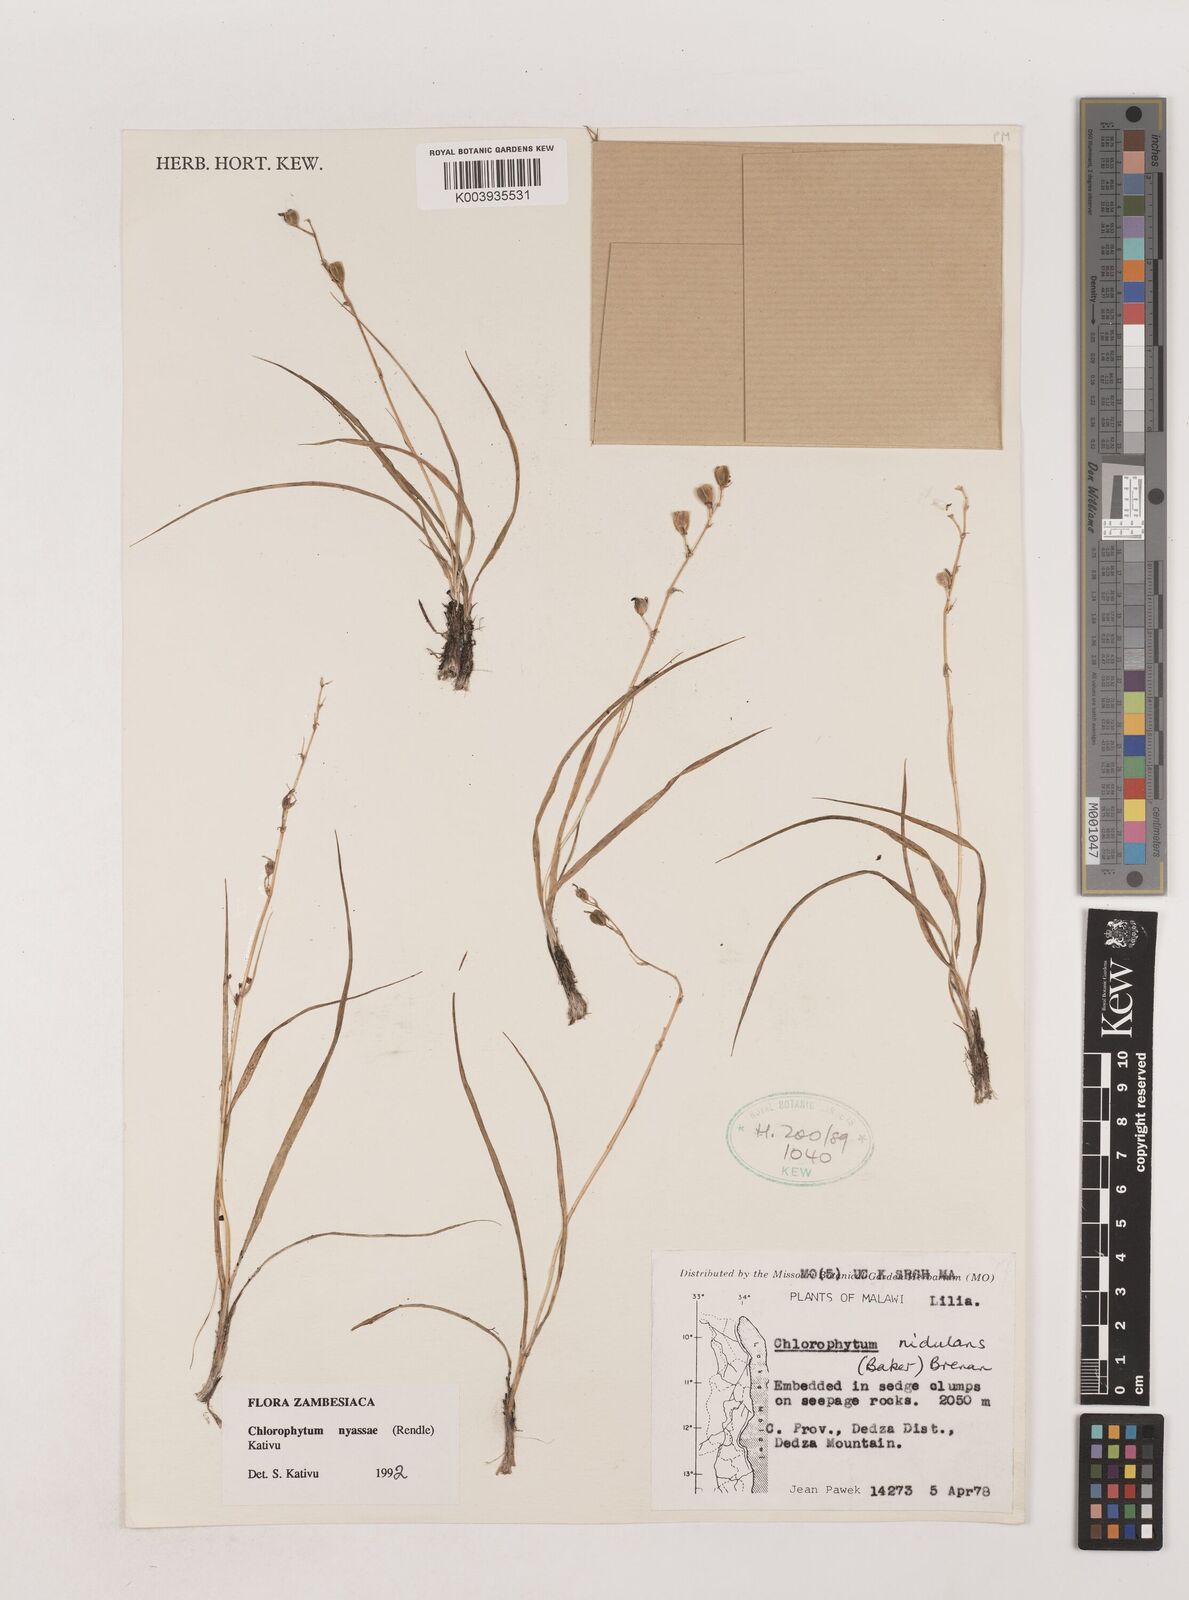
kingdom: Plantae
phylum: Tracheophyta
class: Liliopsida
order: Asparagales
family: Asparagaceae
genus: Chlorophytum
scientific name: Chlorophytum nyasae
